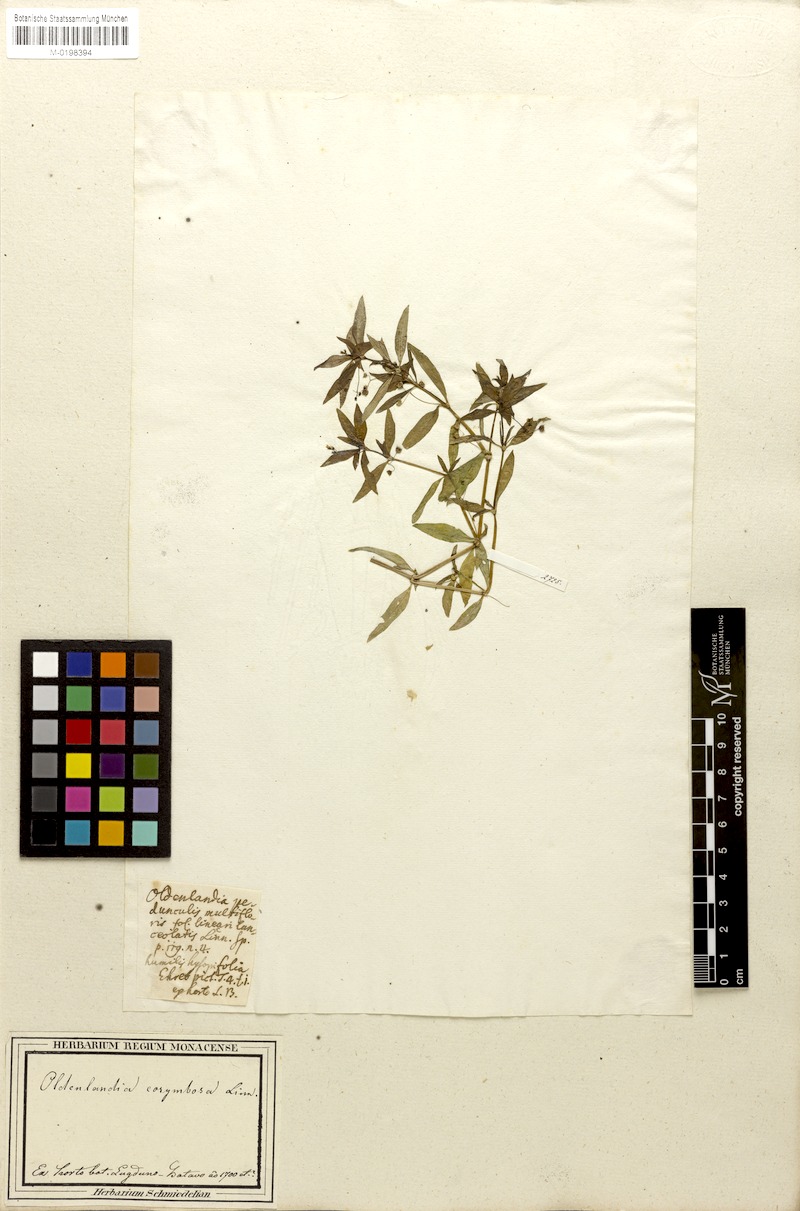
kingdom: Plantae
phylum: Tracheophyta
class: Magnoliopsida
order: Gentianales
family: Rubiaceae
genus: Oldenlandia
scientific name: Oldenlandia corymbosa
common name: Flat-top mille graines
